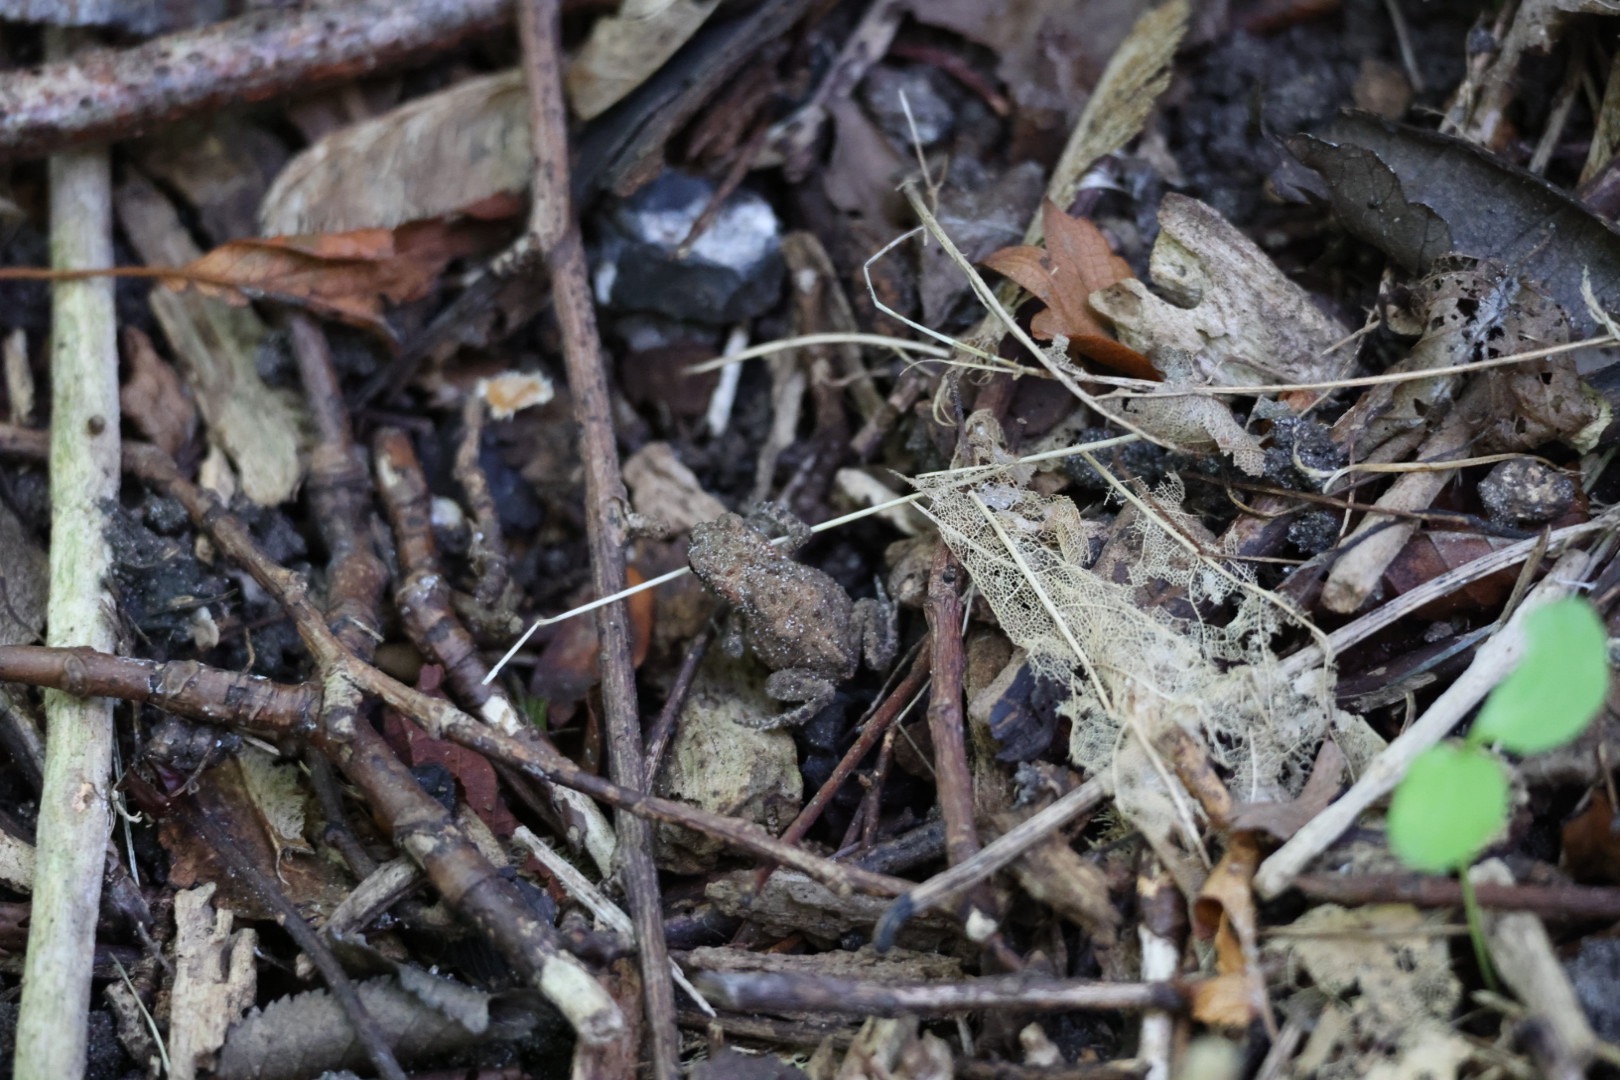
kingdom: Animalia
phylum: Chordata
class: Amphibia
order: Anura
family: Bufonidae
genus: Bufo
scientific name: Bufo bufo
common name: Skrubtudse
